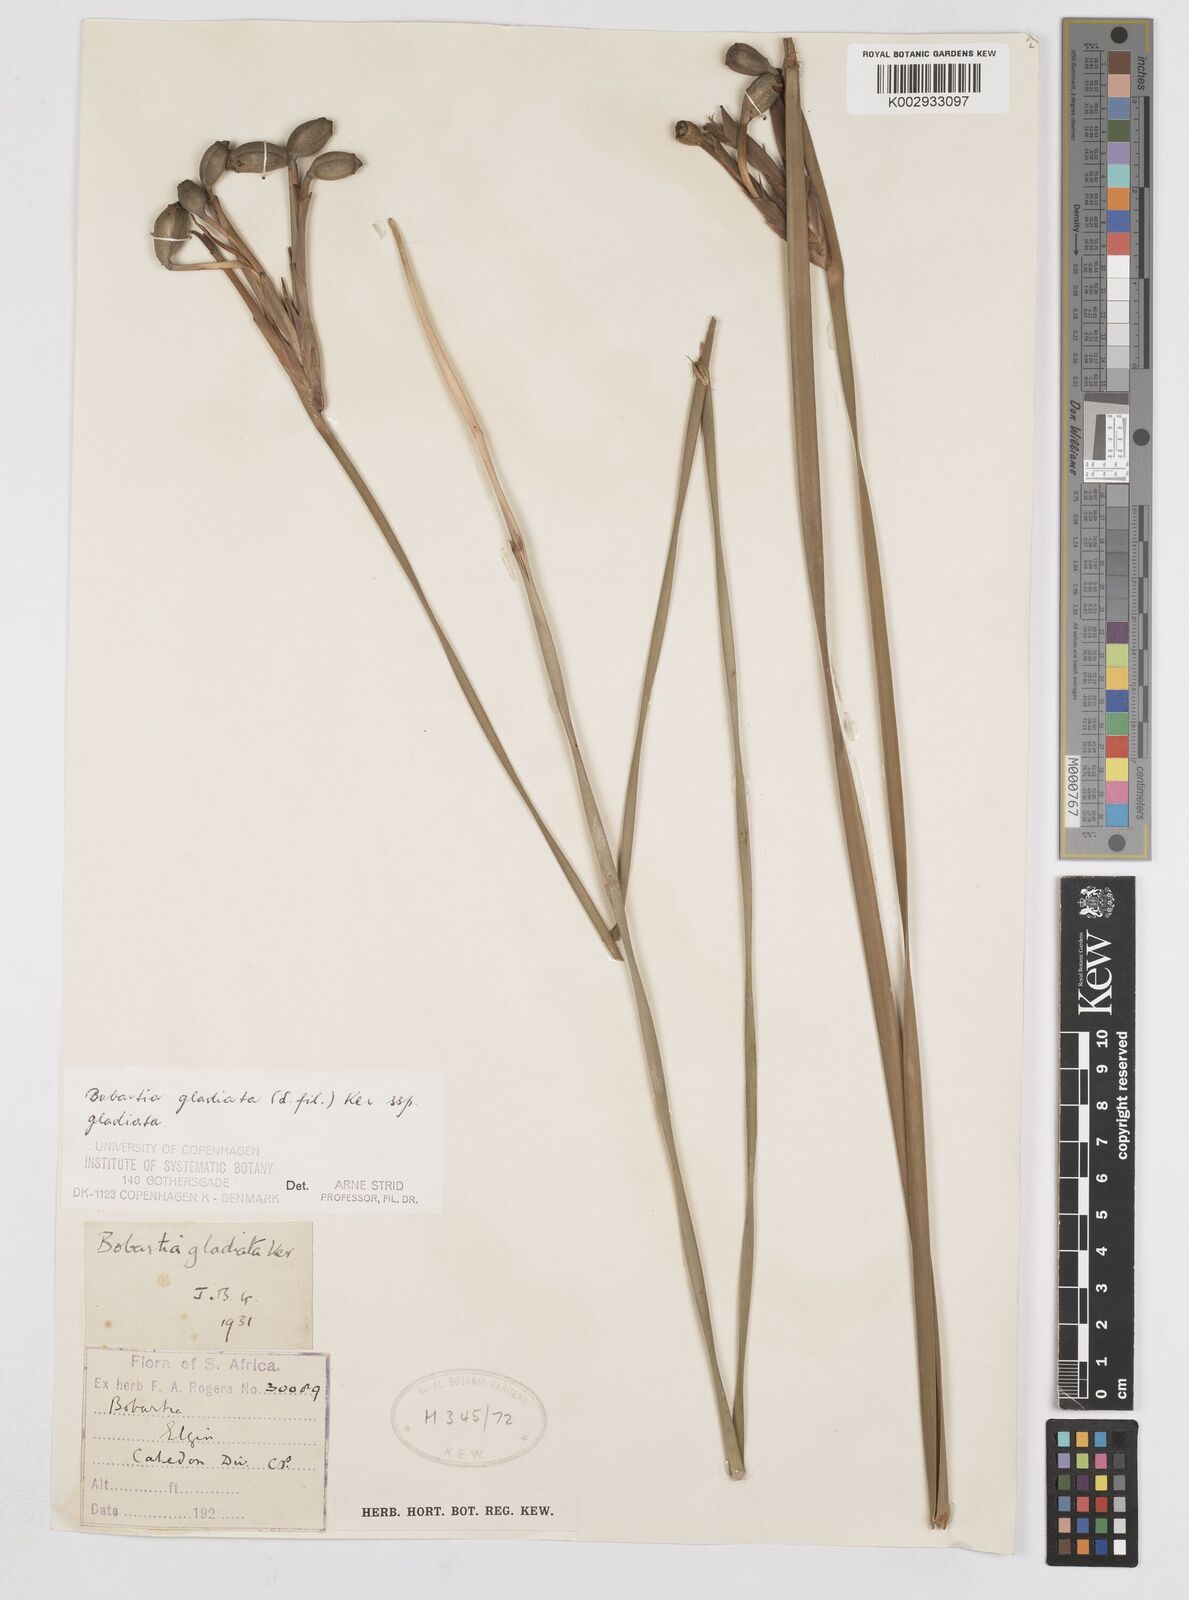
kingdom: Plantae
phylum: Tracheophyta
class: Liliopsida
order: Asparagales
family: Iridaceae
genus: Bobartia
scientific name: Bobartia gladiata
